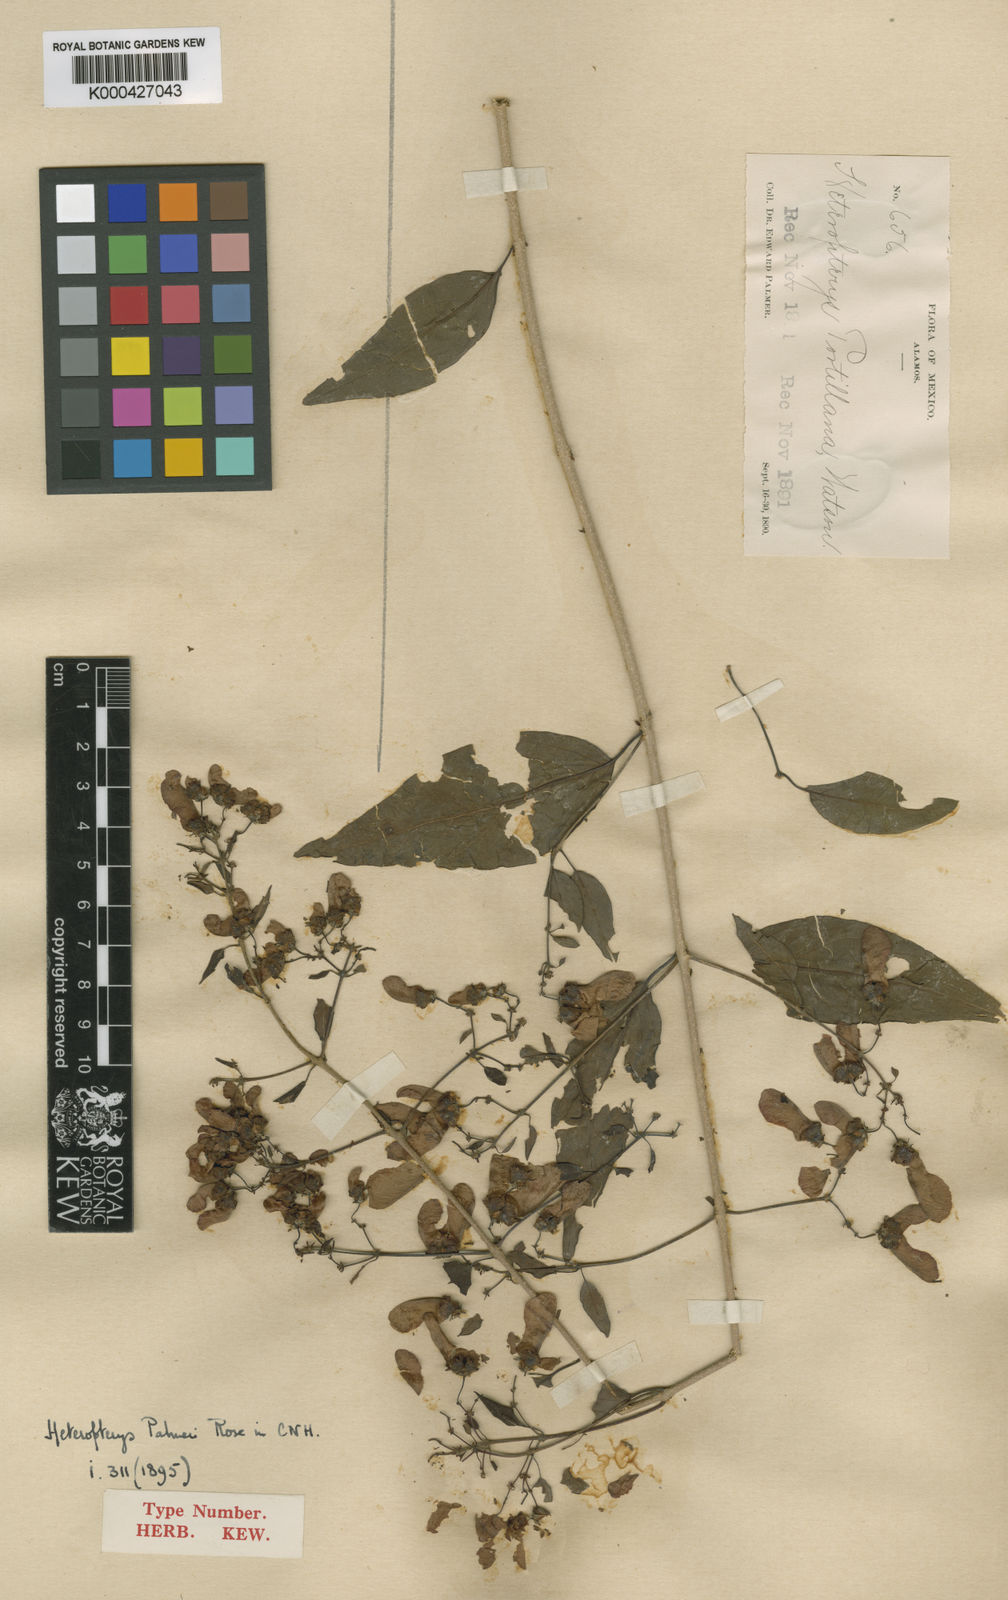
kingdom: Plantae
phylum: Tracheophyta
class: Magnoliopsida
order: Malpighiales
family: Malpighiaceae
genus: Heteropterys
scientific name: Heteropterys palmeri
